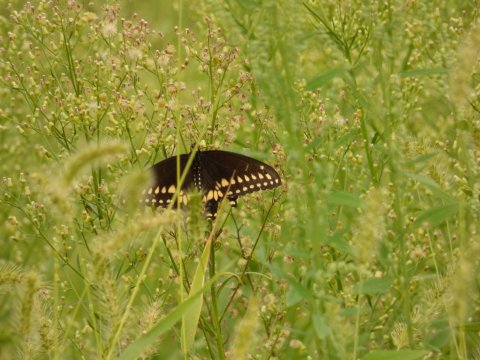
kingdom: Animalia
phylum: Arthropoda
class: Insecta
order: Lepidoptera
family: Papilionidae
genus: Papilio
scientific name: Papilio polyxenes
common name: Black Swallowtail
